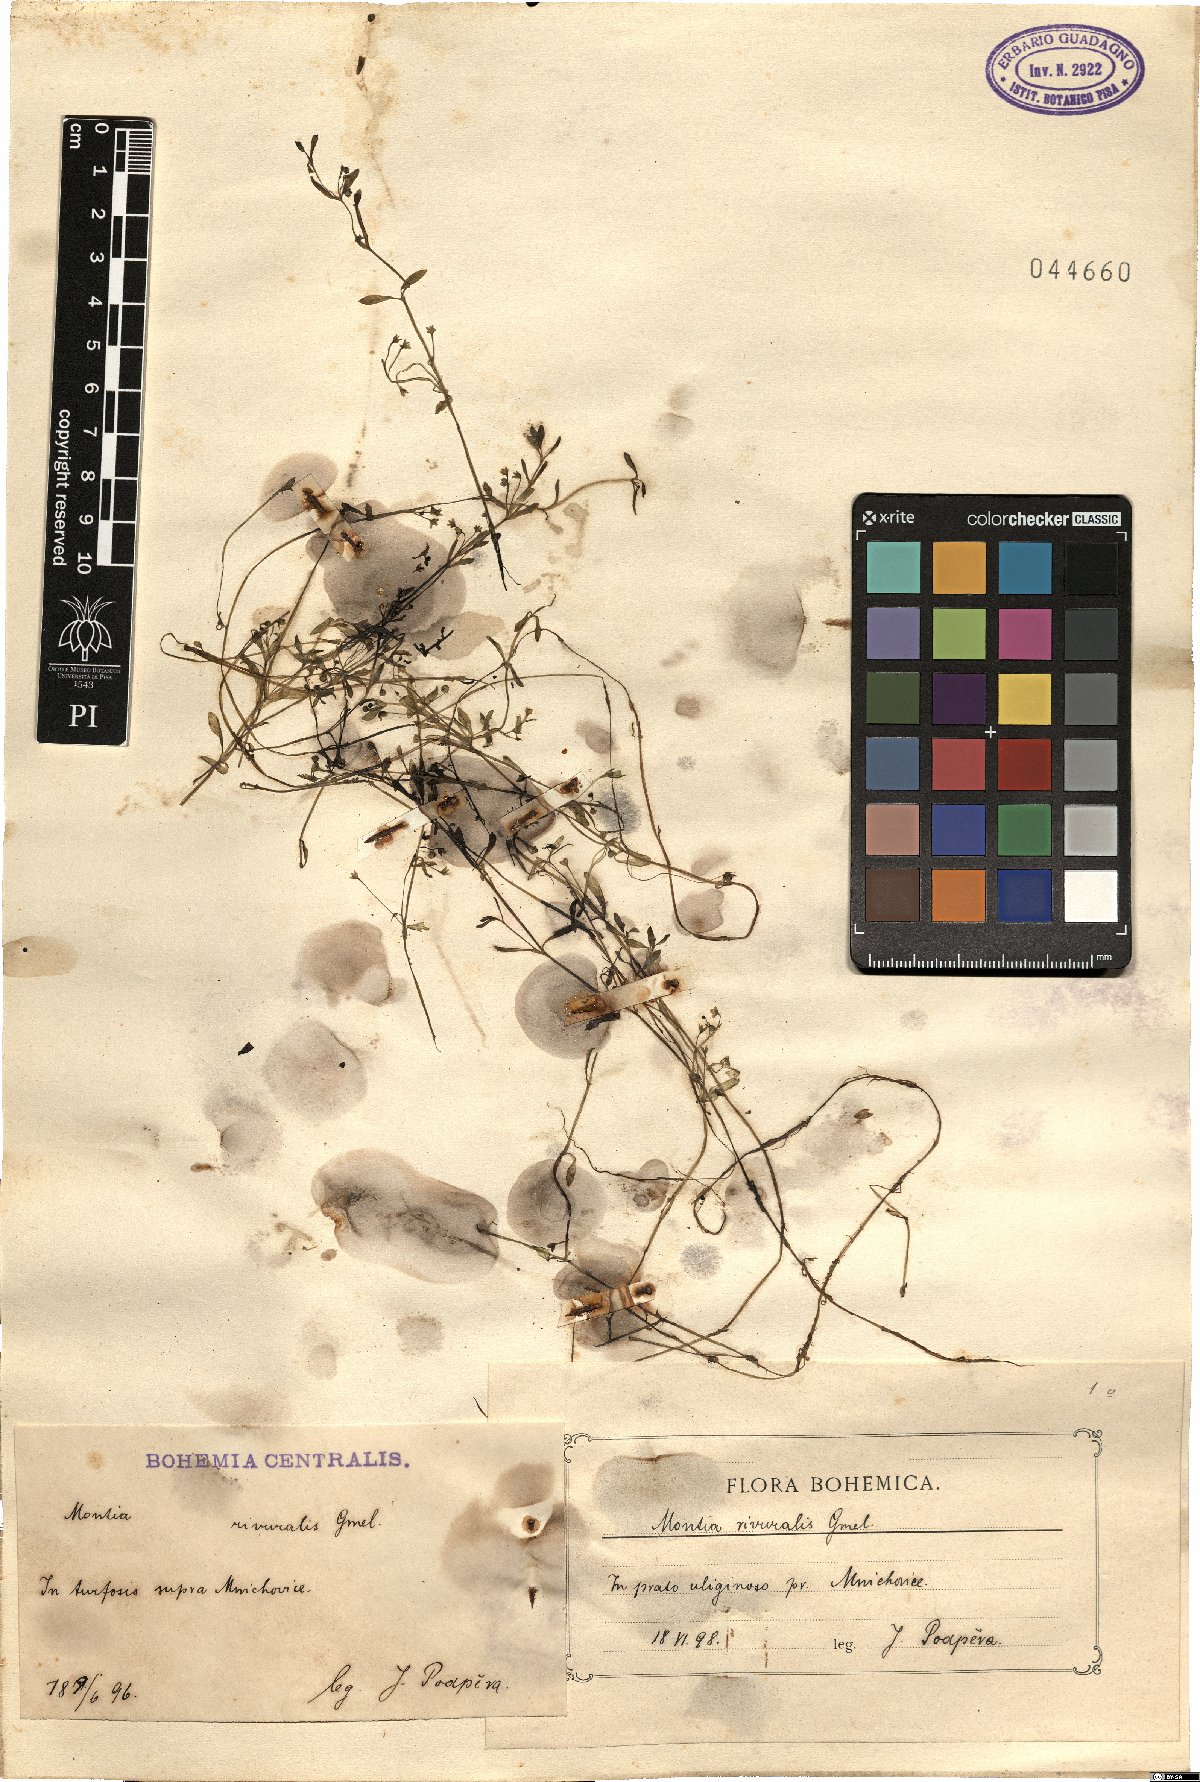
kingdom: Plantae
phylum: Tracheophyta
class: Magnoliopsida
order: Caryophyllales
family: Montiaceae
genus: Montia
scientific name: Montia fontana
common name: Blinks
